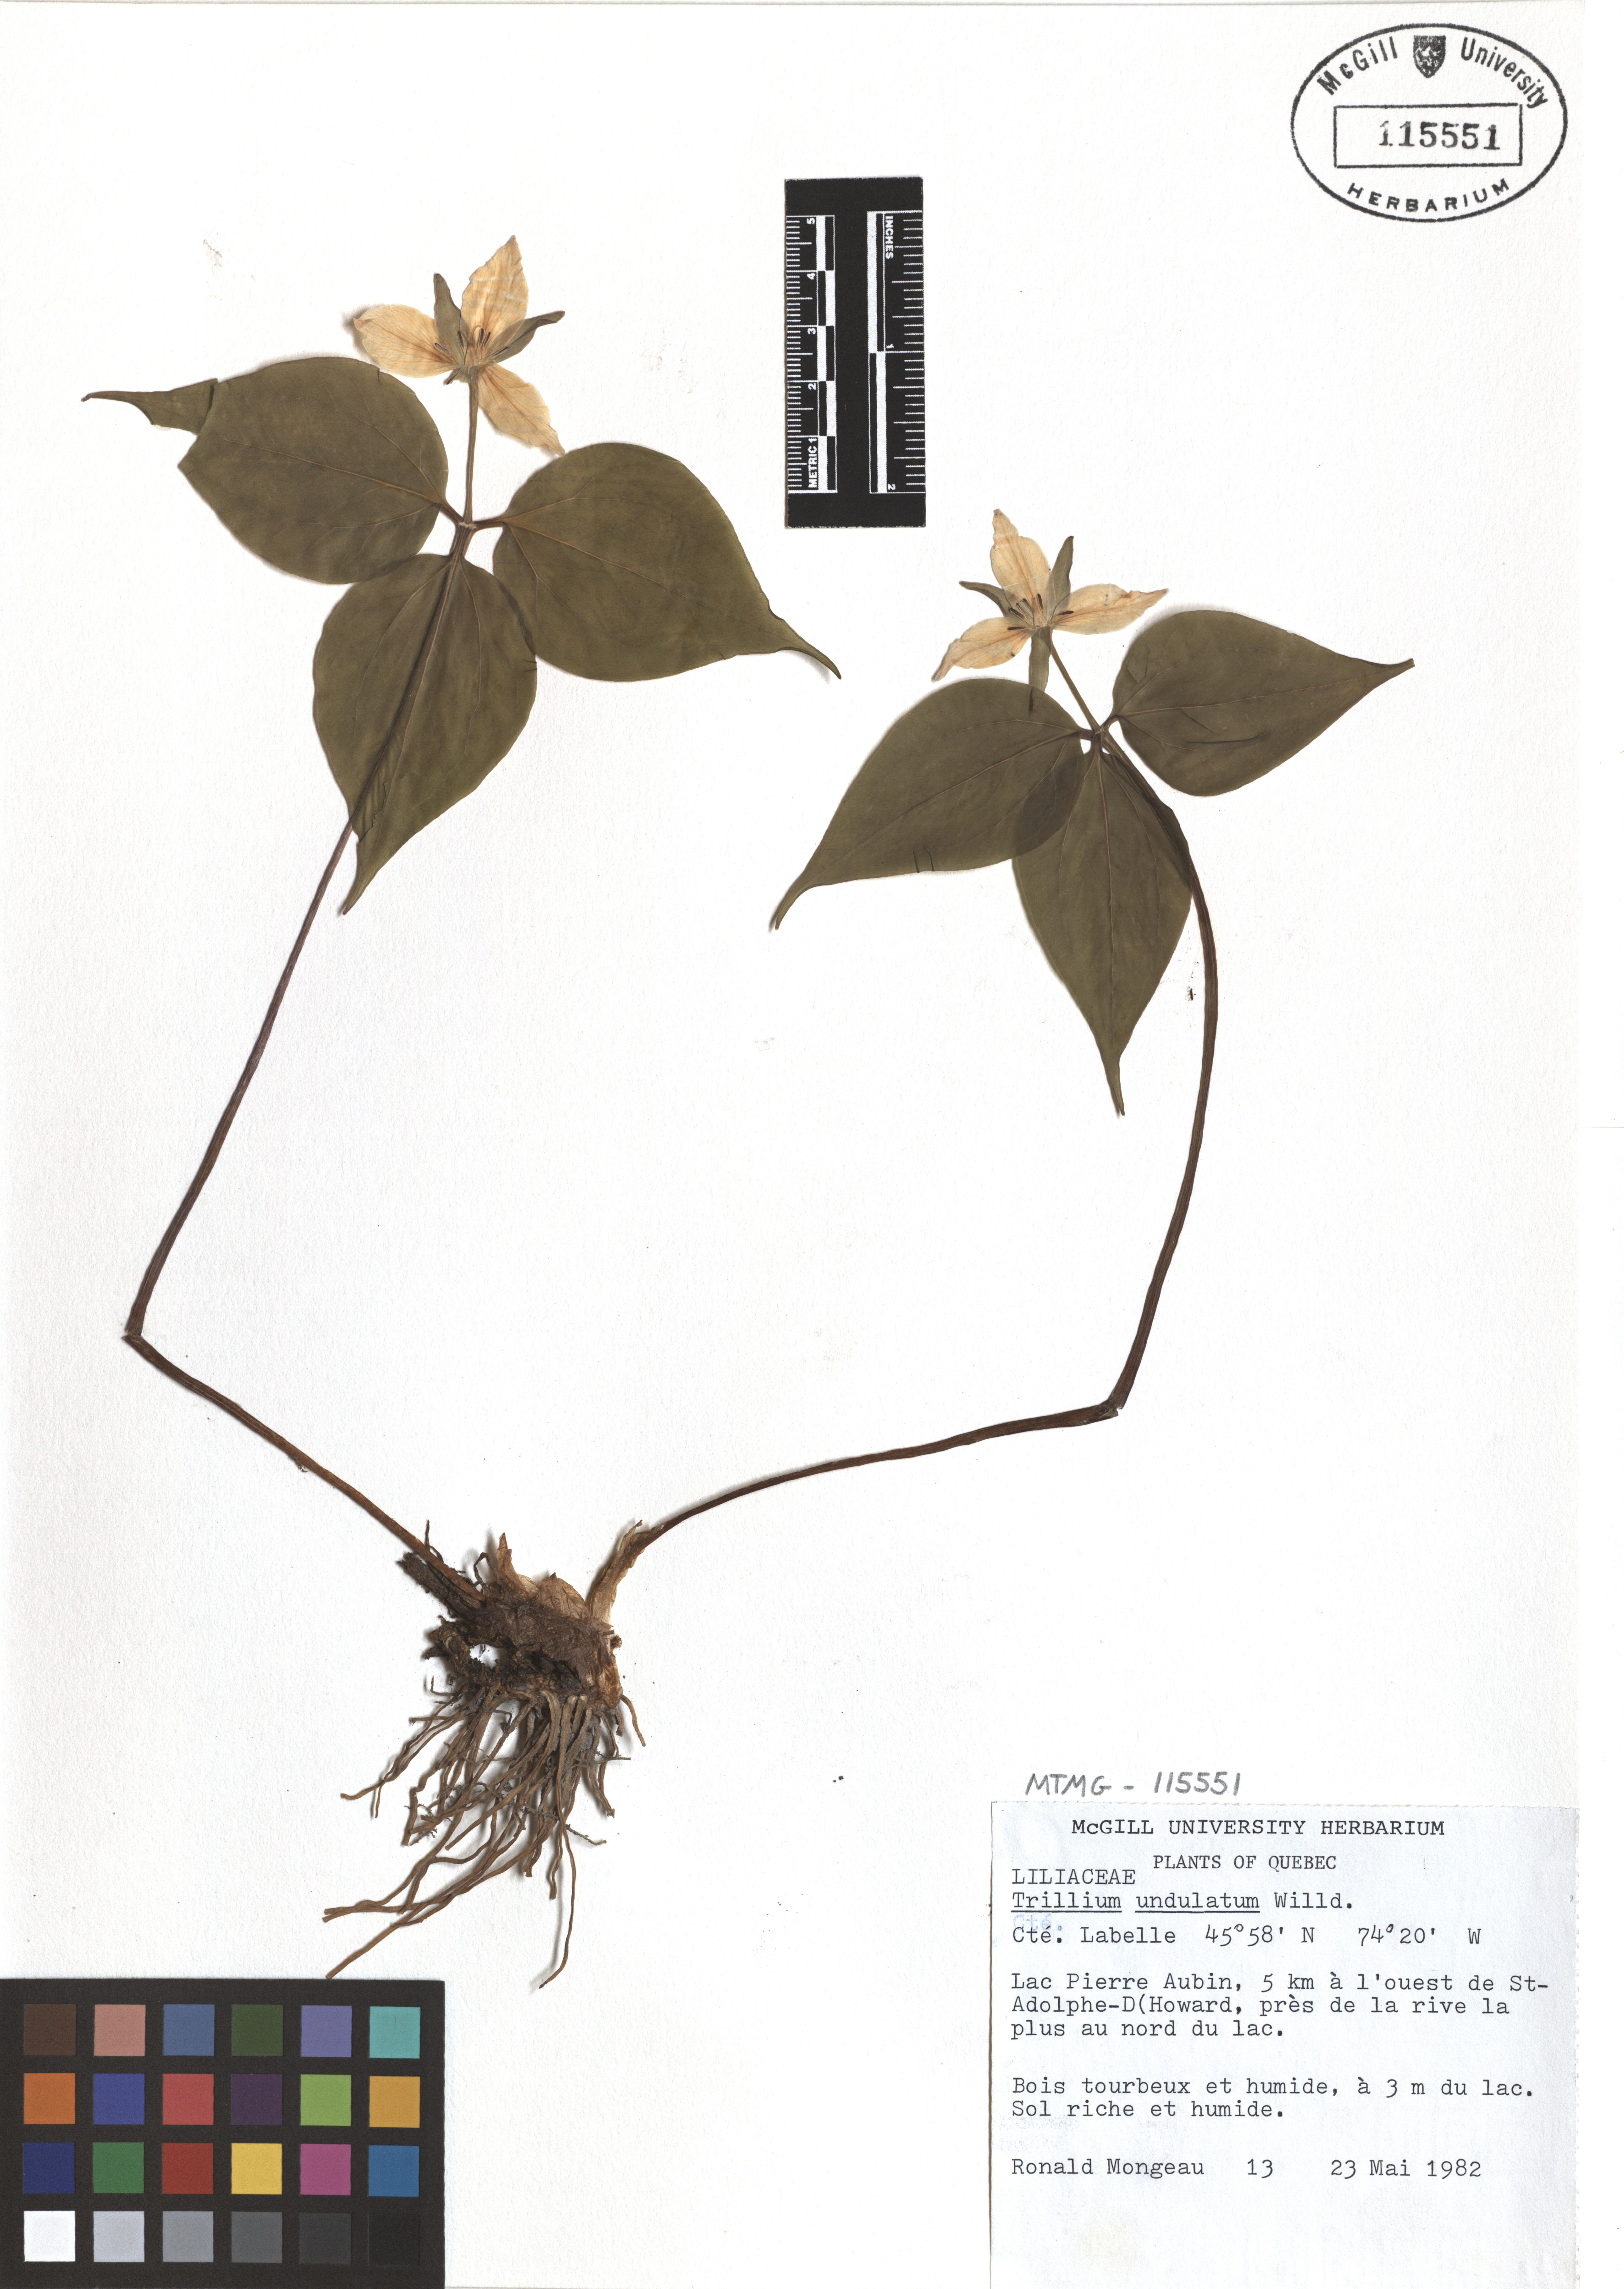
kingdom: Plantae
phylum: Tracheophyta
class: Liliopsida
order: Liliales
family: Melanthiaceae
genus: Trillium
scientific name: Trillium undulatum
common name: Paint trillium
